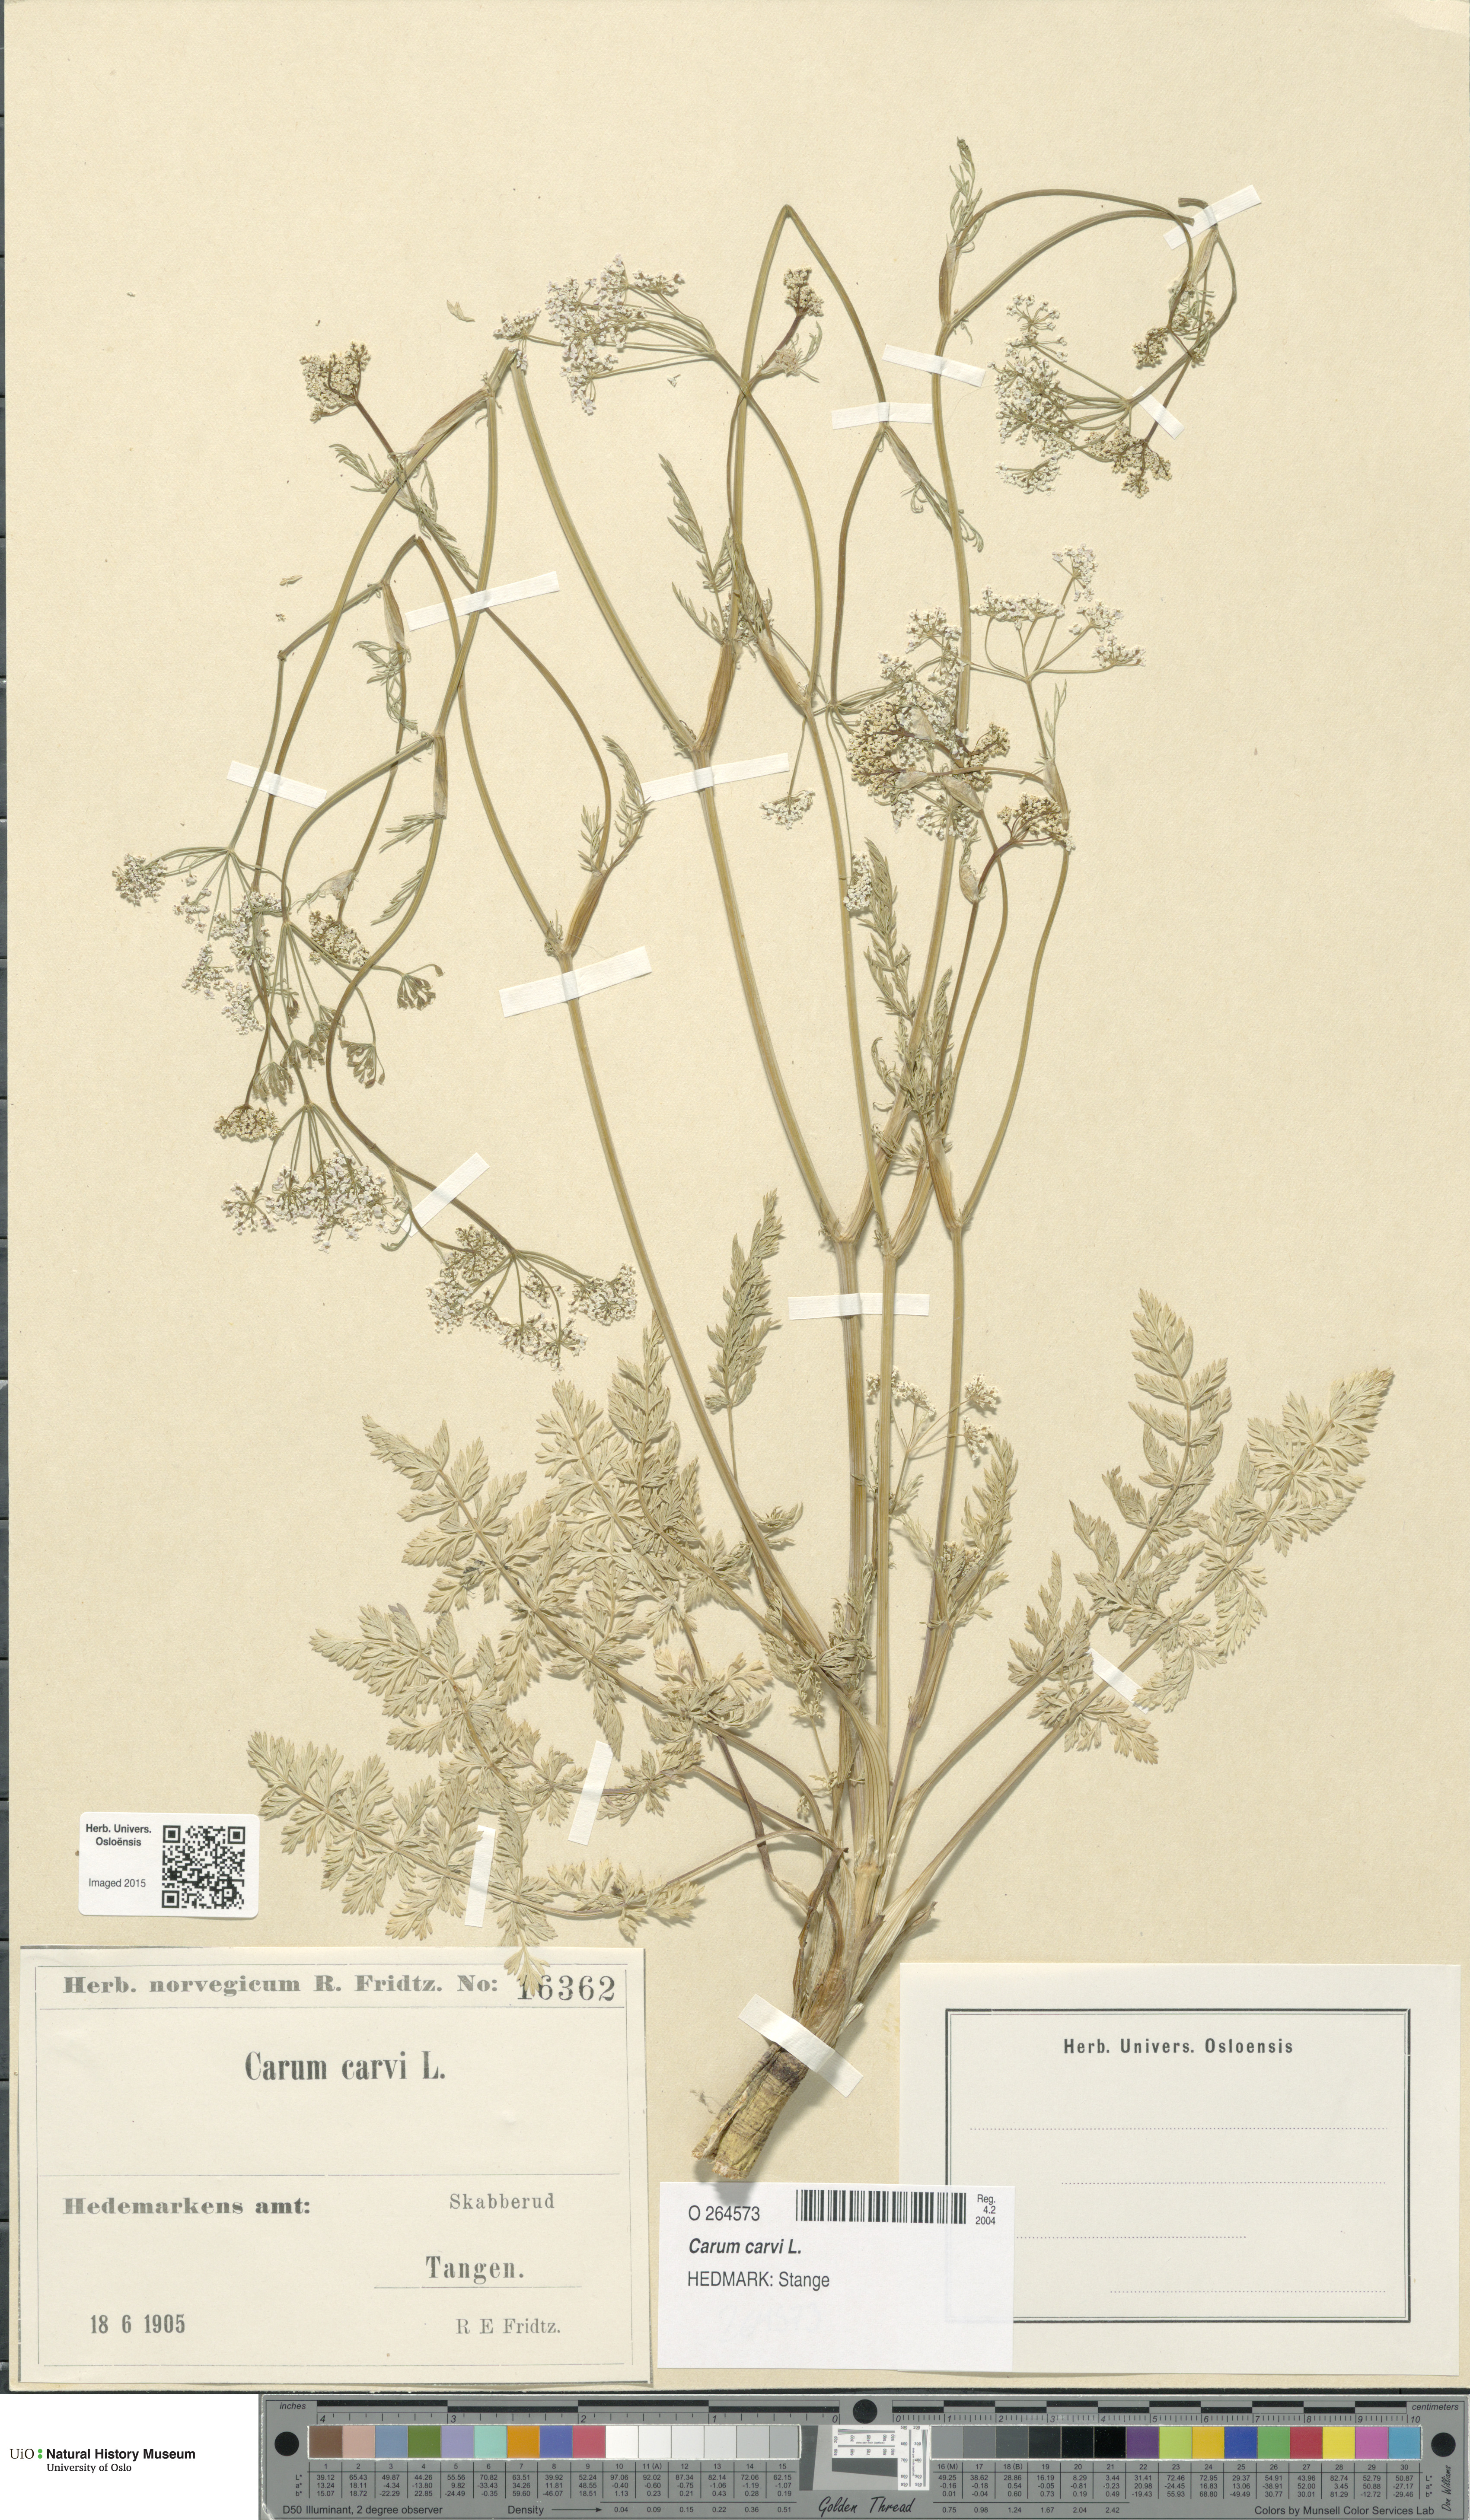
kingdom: Plantae
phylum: Tracheophyta
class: Magnoliopsida
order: Apiales
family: Apiaceae
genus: Carum
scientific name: Carum carvi
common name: Caraway
